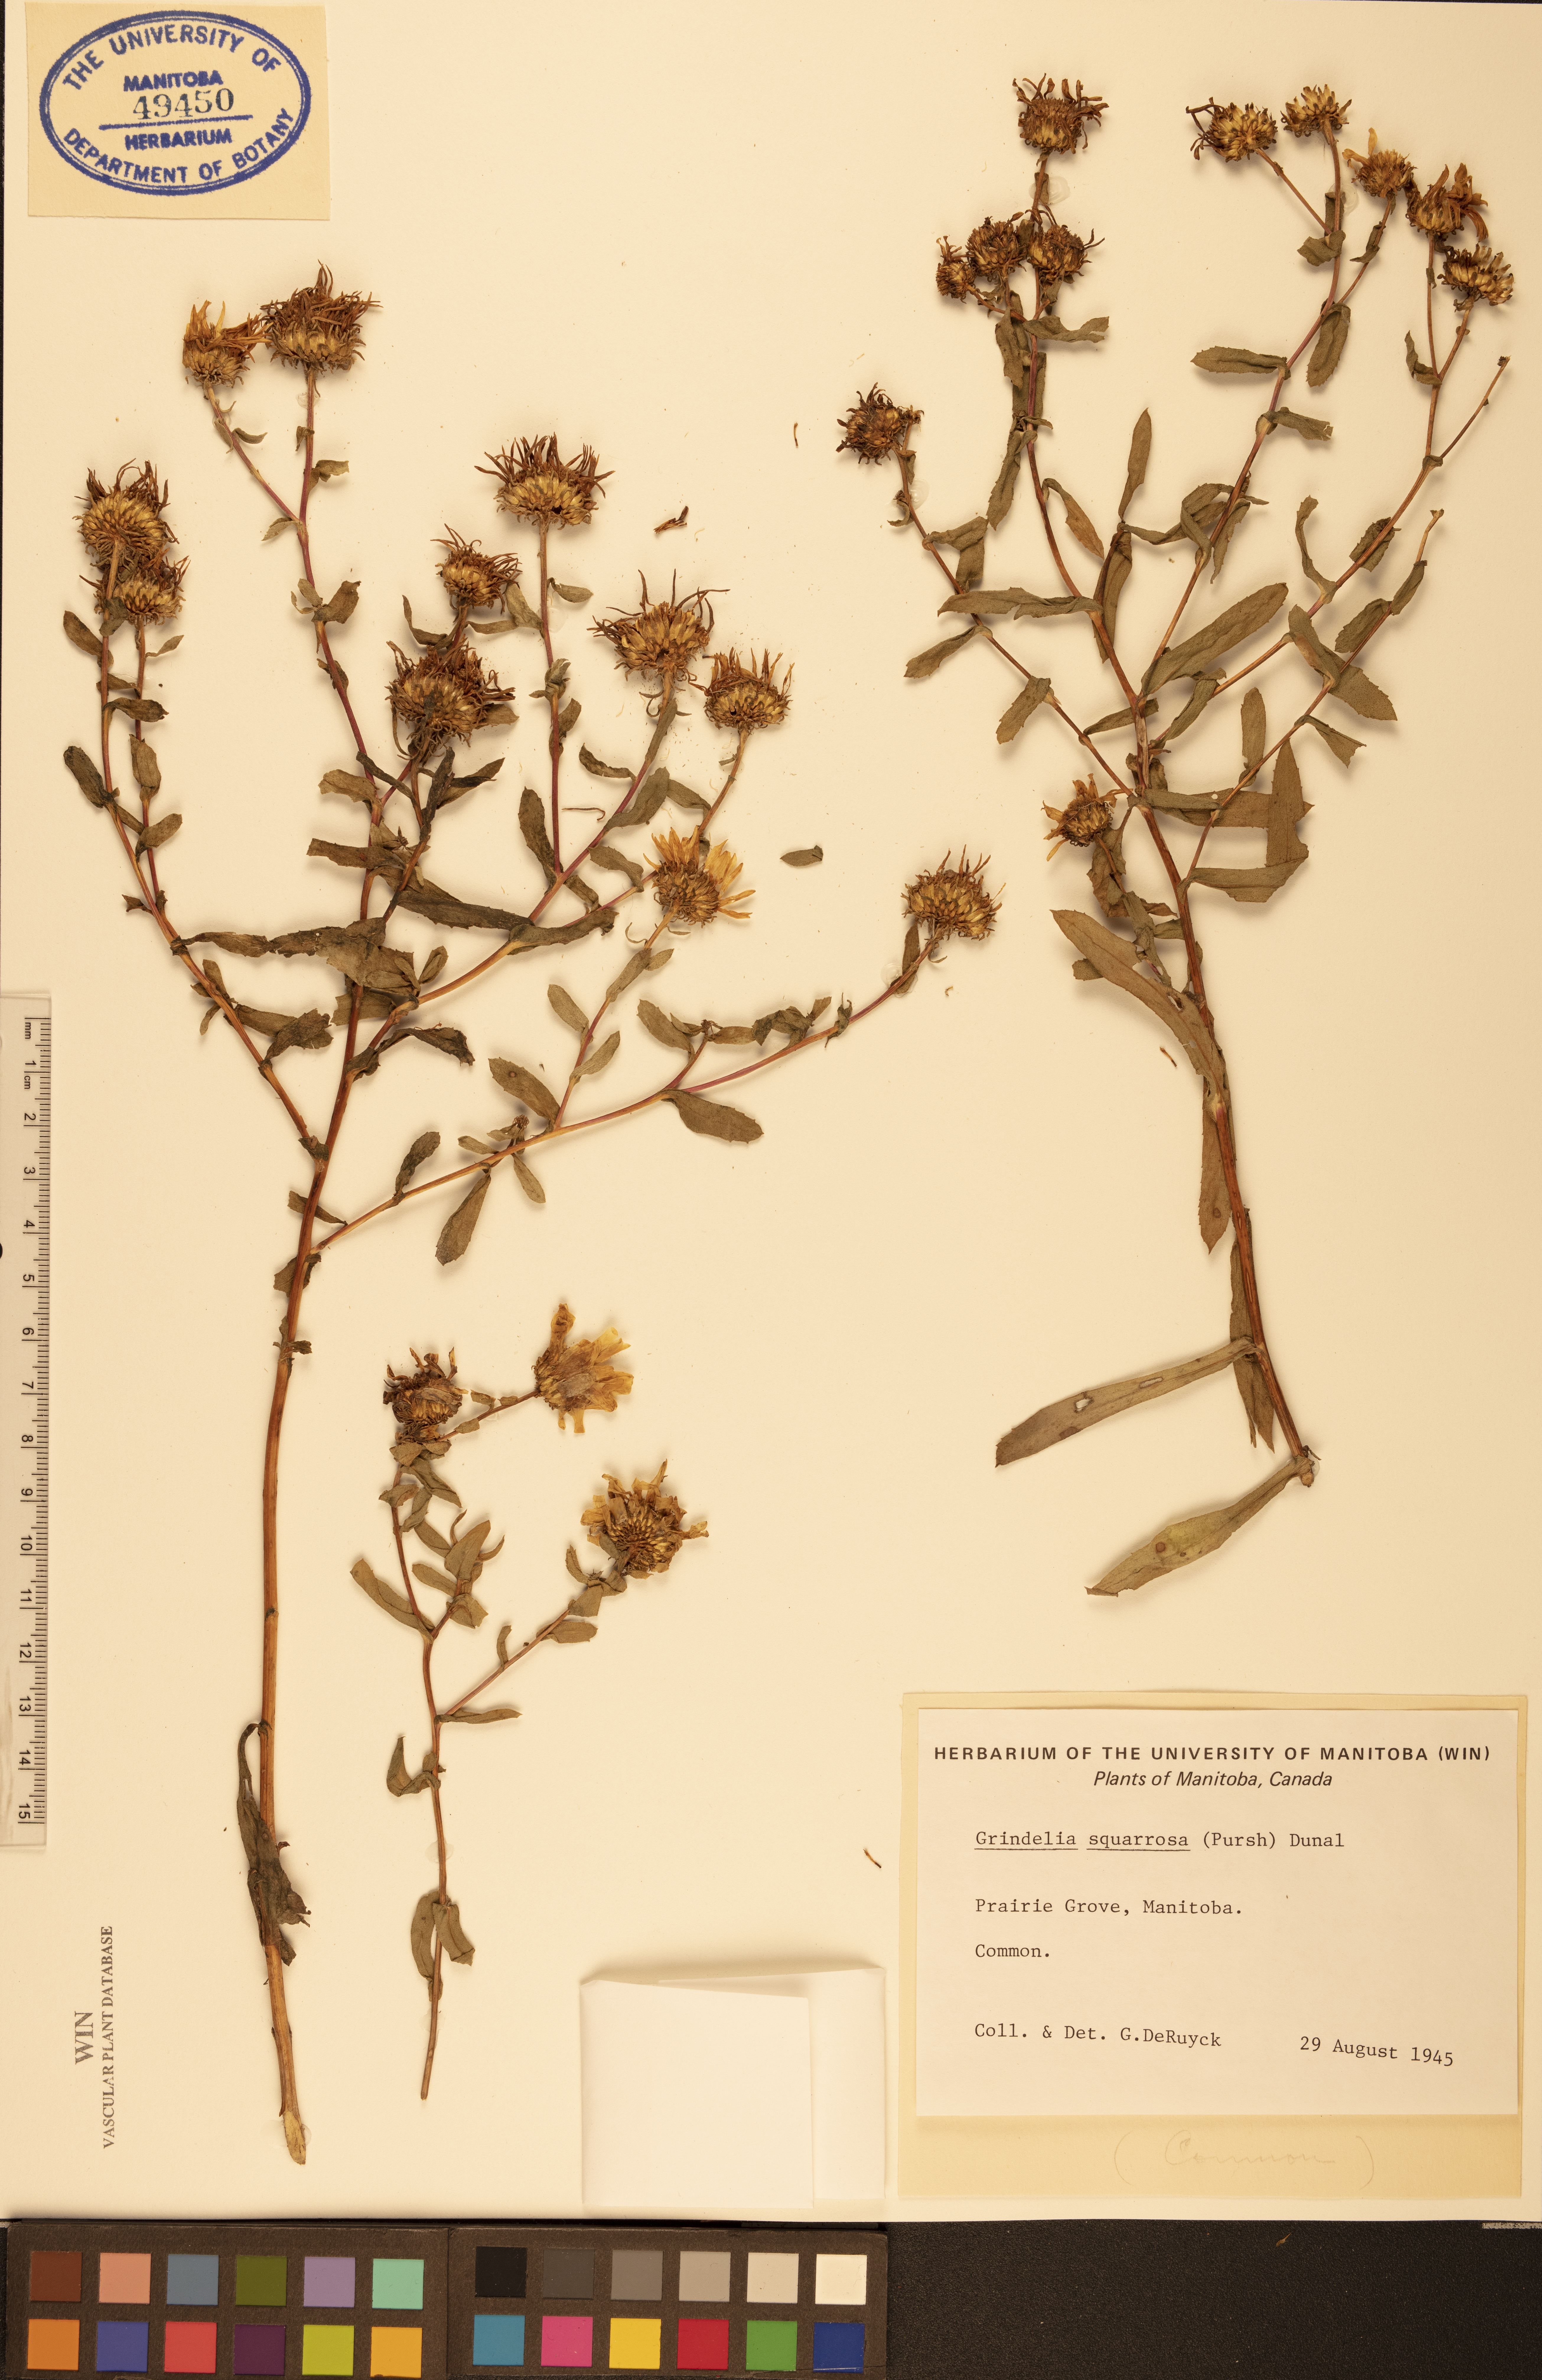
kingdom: Plantae
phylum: Tracheophyta
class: Magnoliopsida
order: Asterales
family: Asteraceae
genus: Grindelia
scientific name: Grindelia squarrosa
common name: Curly-cup gumweed
